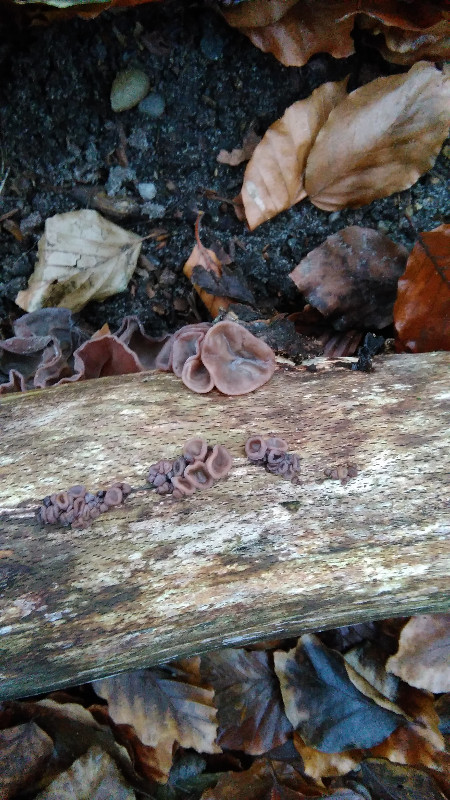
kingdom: Fungi
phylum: Basidiomycota
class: Agaricomycetes
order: Auriculariales
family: Auriculariaceae
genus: Auricularia
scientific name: Auricularia auricula-judae
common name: almindelig judasøre
